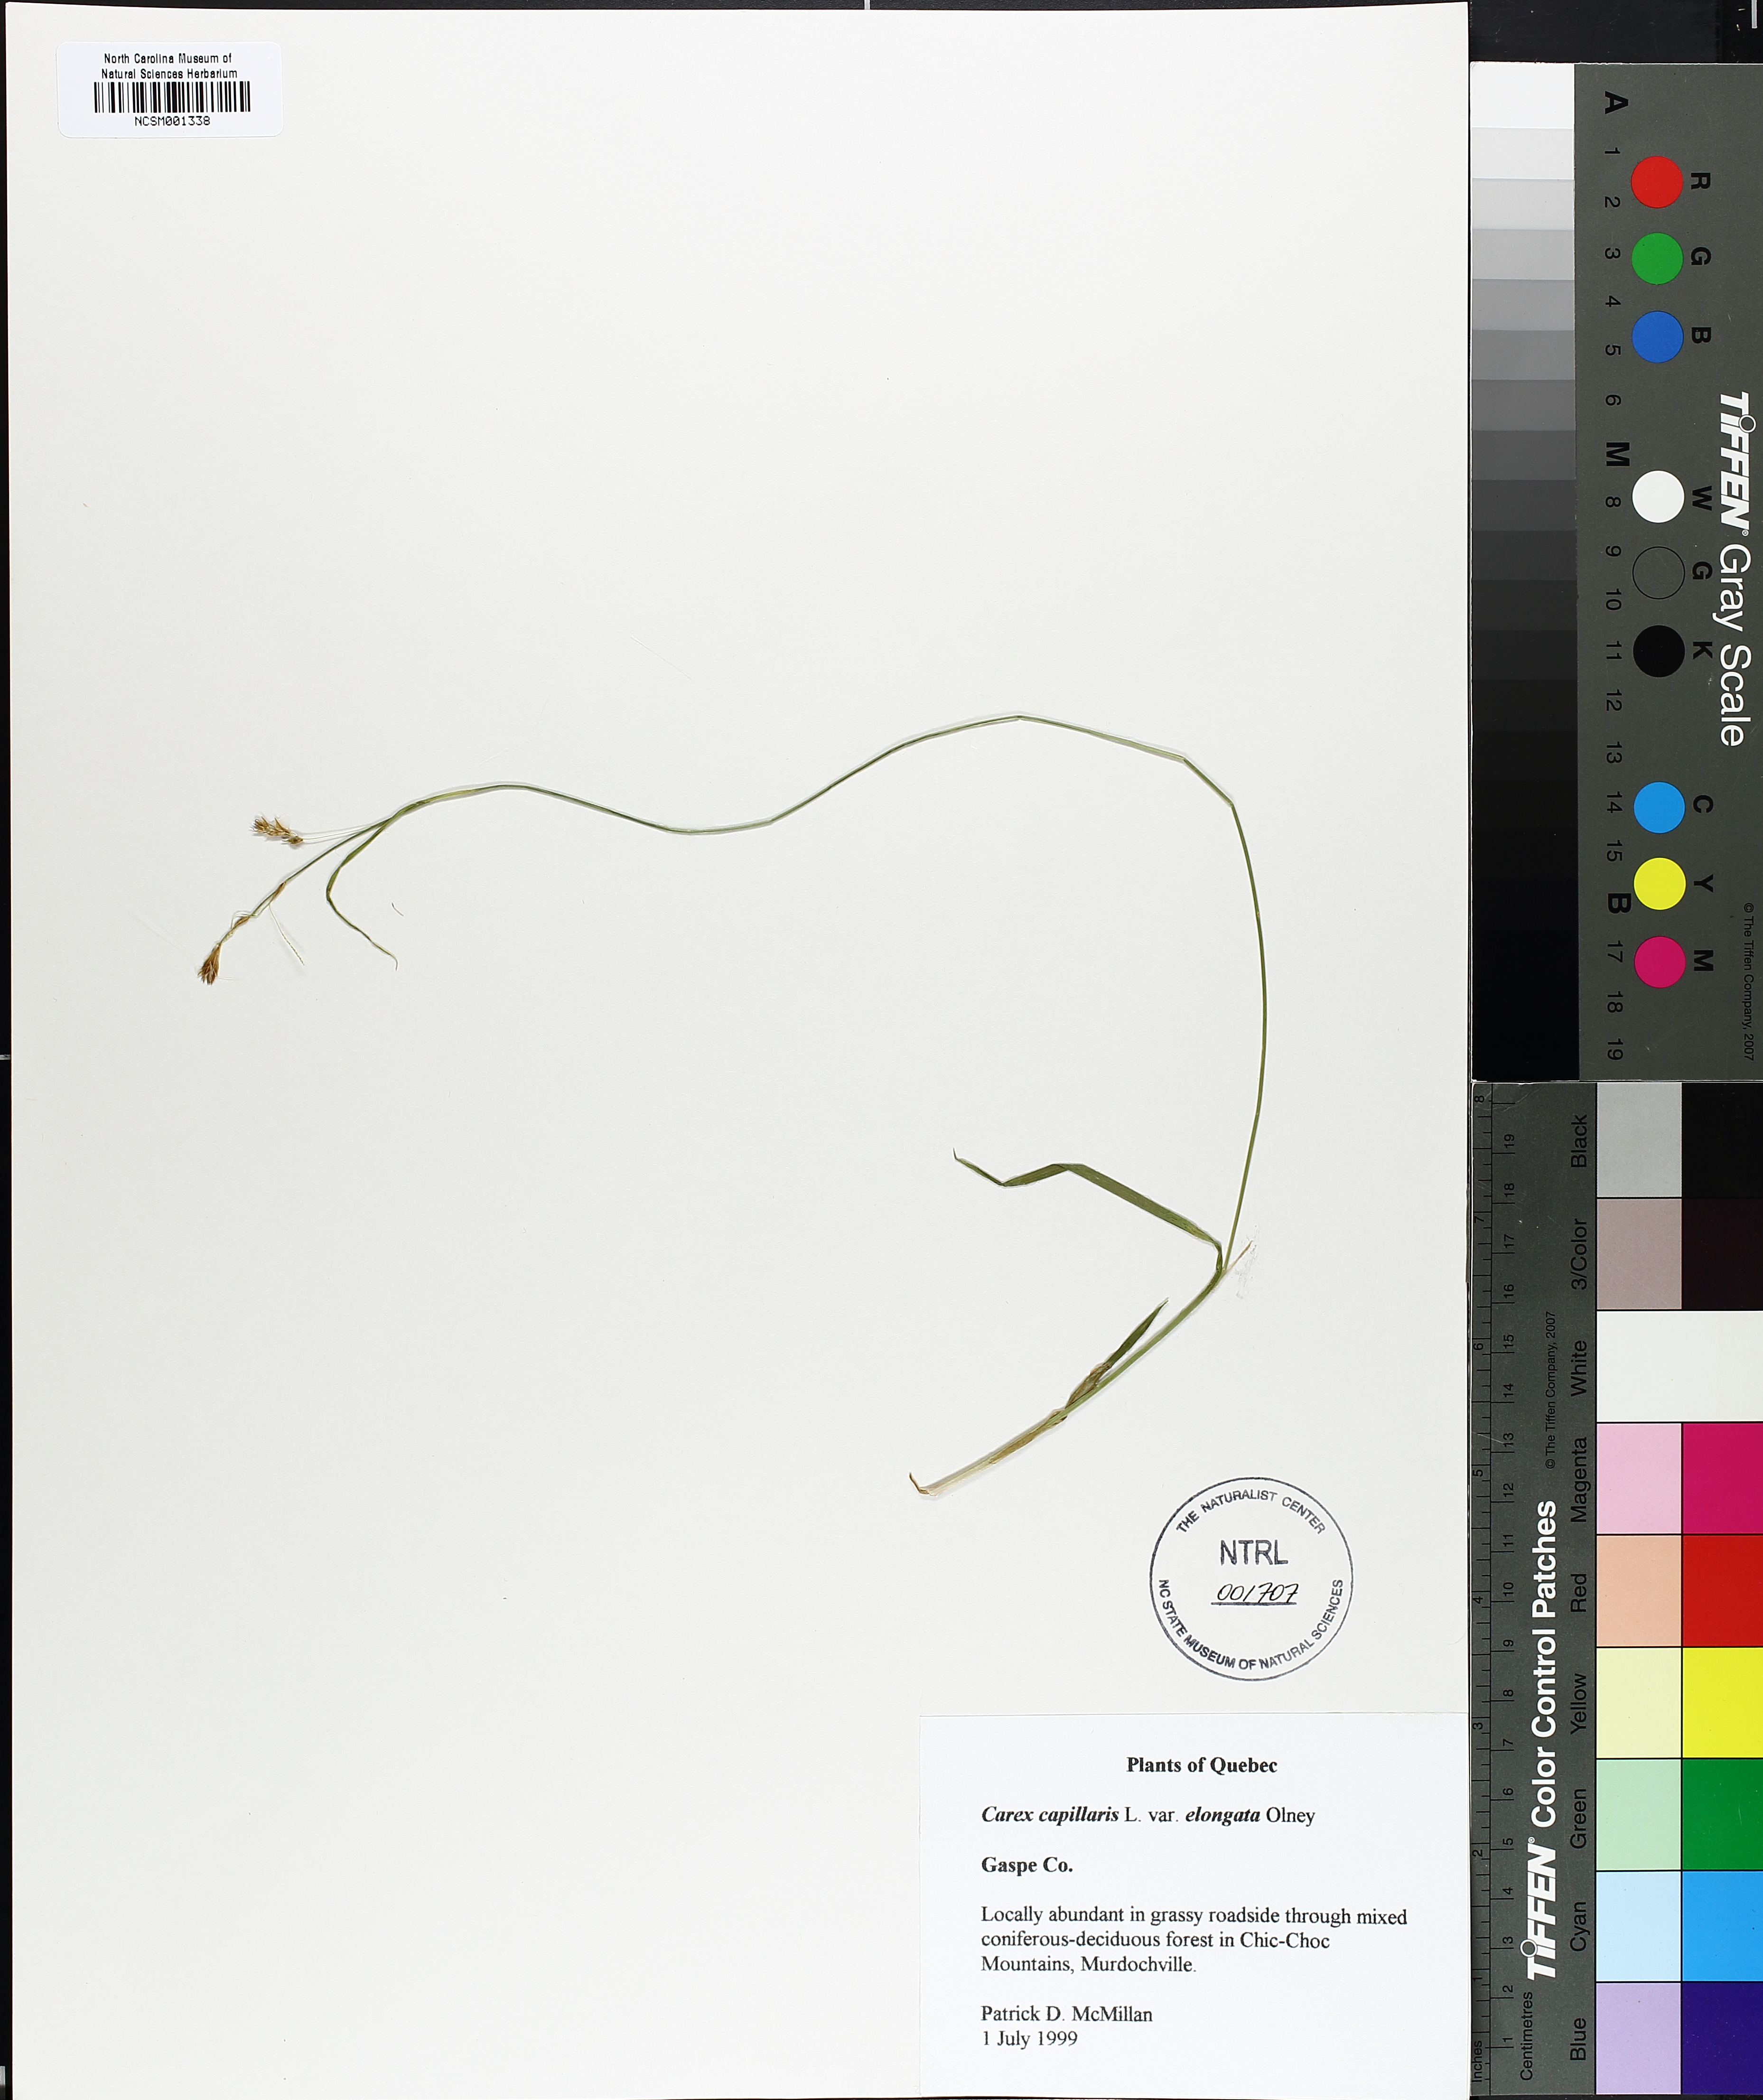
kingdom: Plantae
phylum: Tracheophyta
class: Liliopsida
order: Poales
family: Cyperaceae
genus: Carex
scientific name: Carex capillaris
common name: Hair sedge
